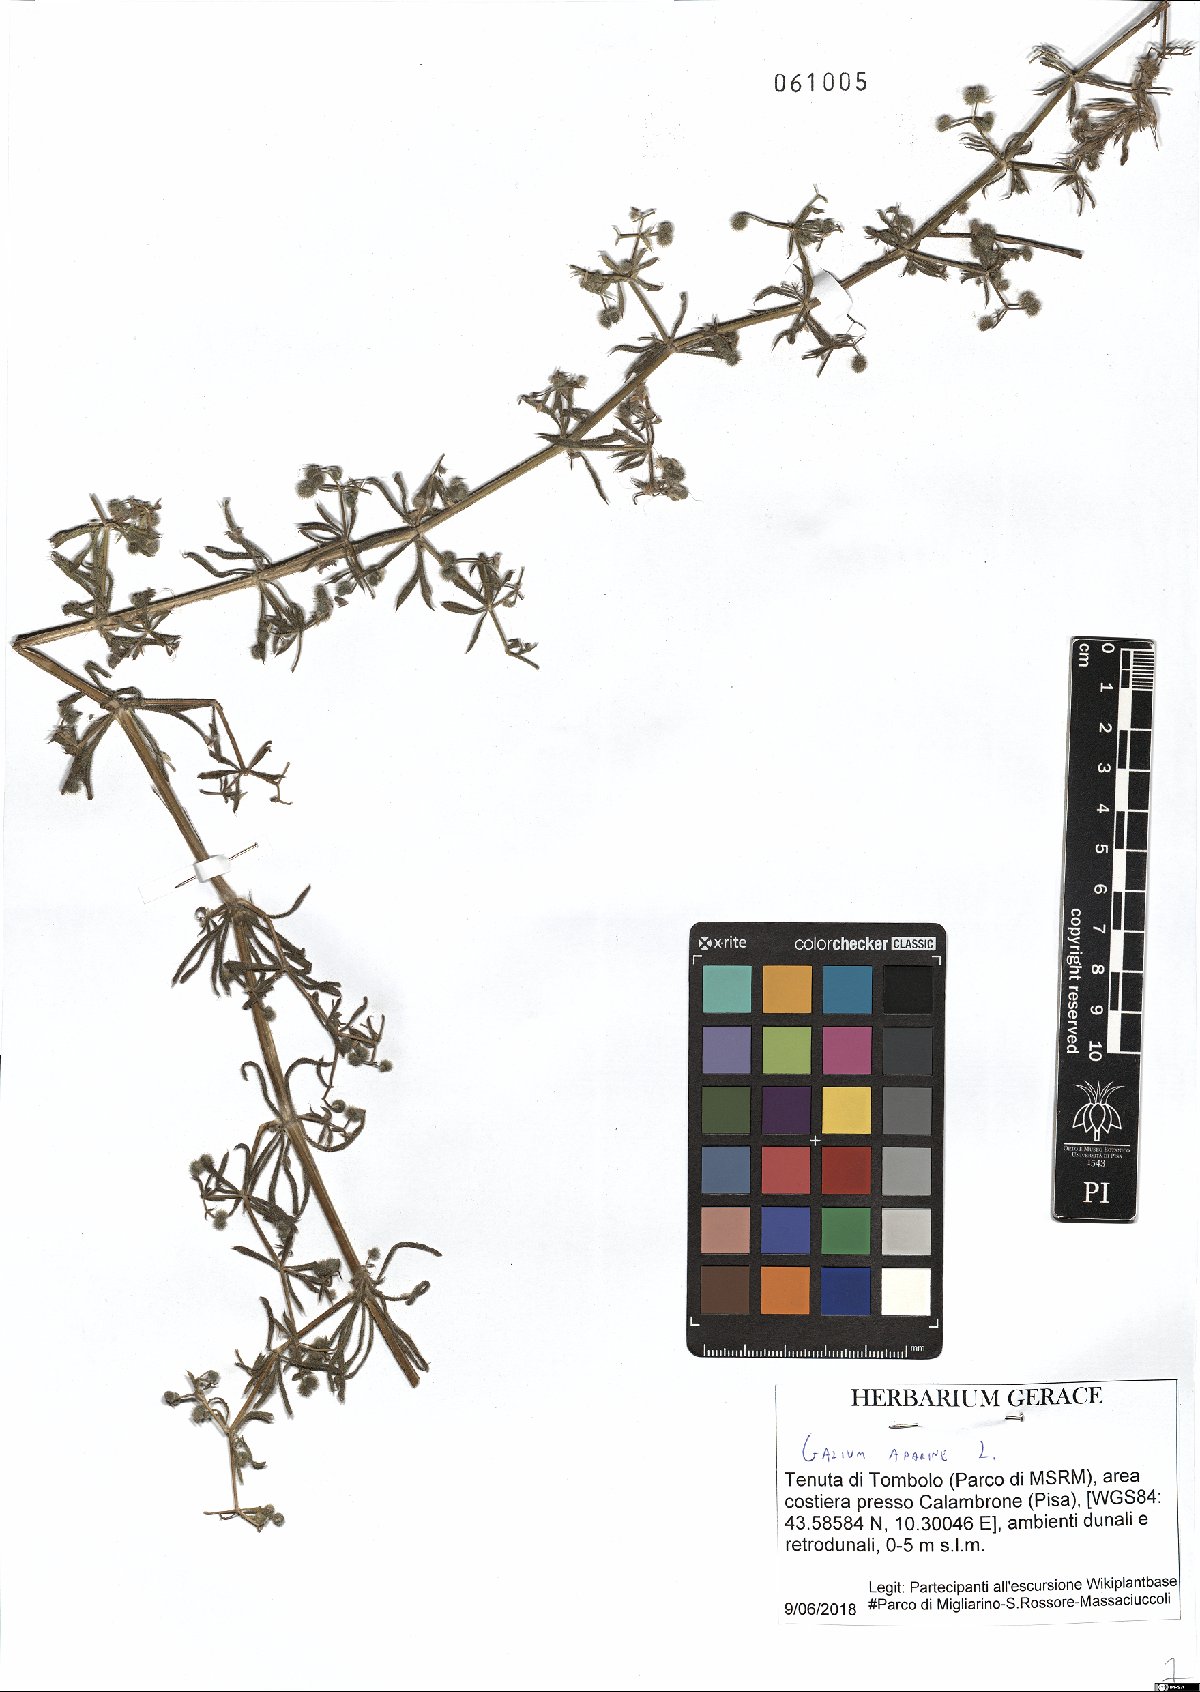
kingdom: Plantae
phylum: Tracheophyta
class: Magnoliopsida
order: Gentianales
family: Rubiaceae
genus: Galium
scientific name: Galium aparine
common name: Cleavers
